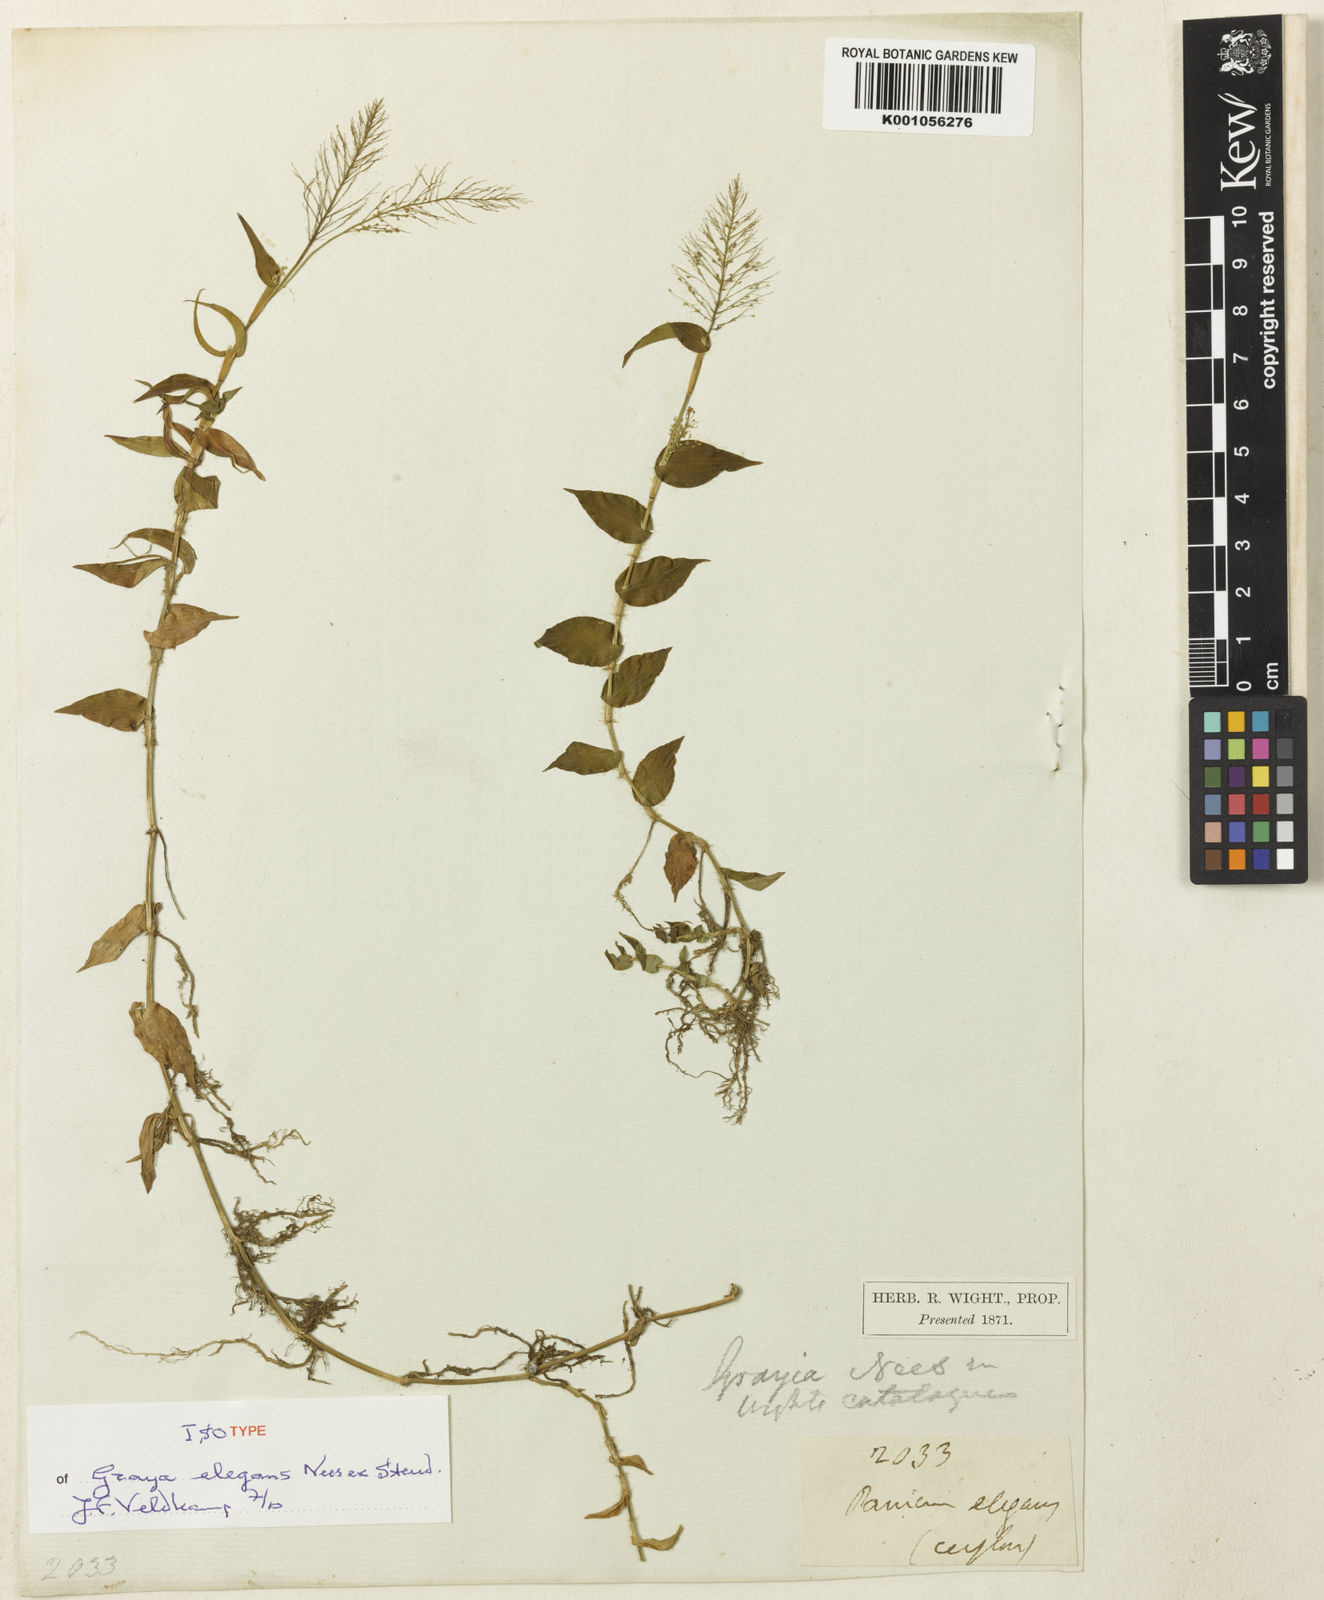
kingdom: Plantae
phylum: Tracheophyta
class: Liliopsida
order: Poales
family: Poaceae
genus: Sphaerocaryum
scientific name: Sphaerocaryum malaccense
